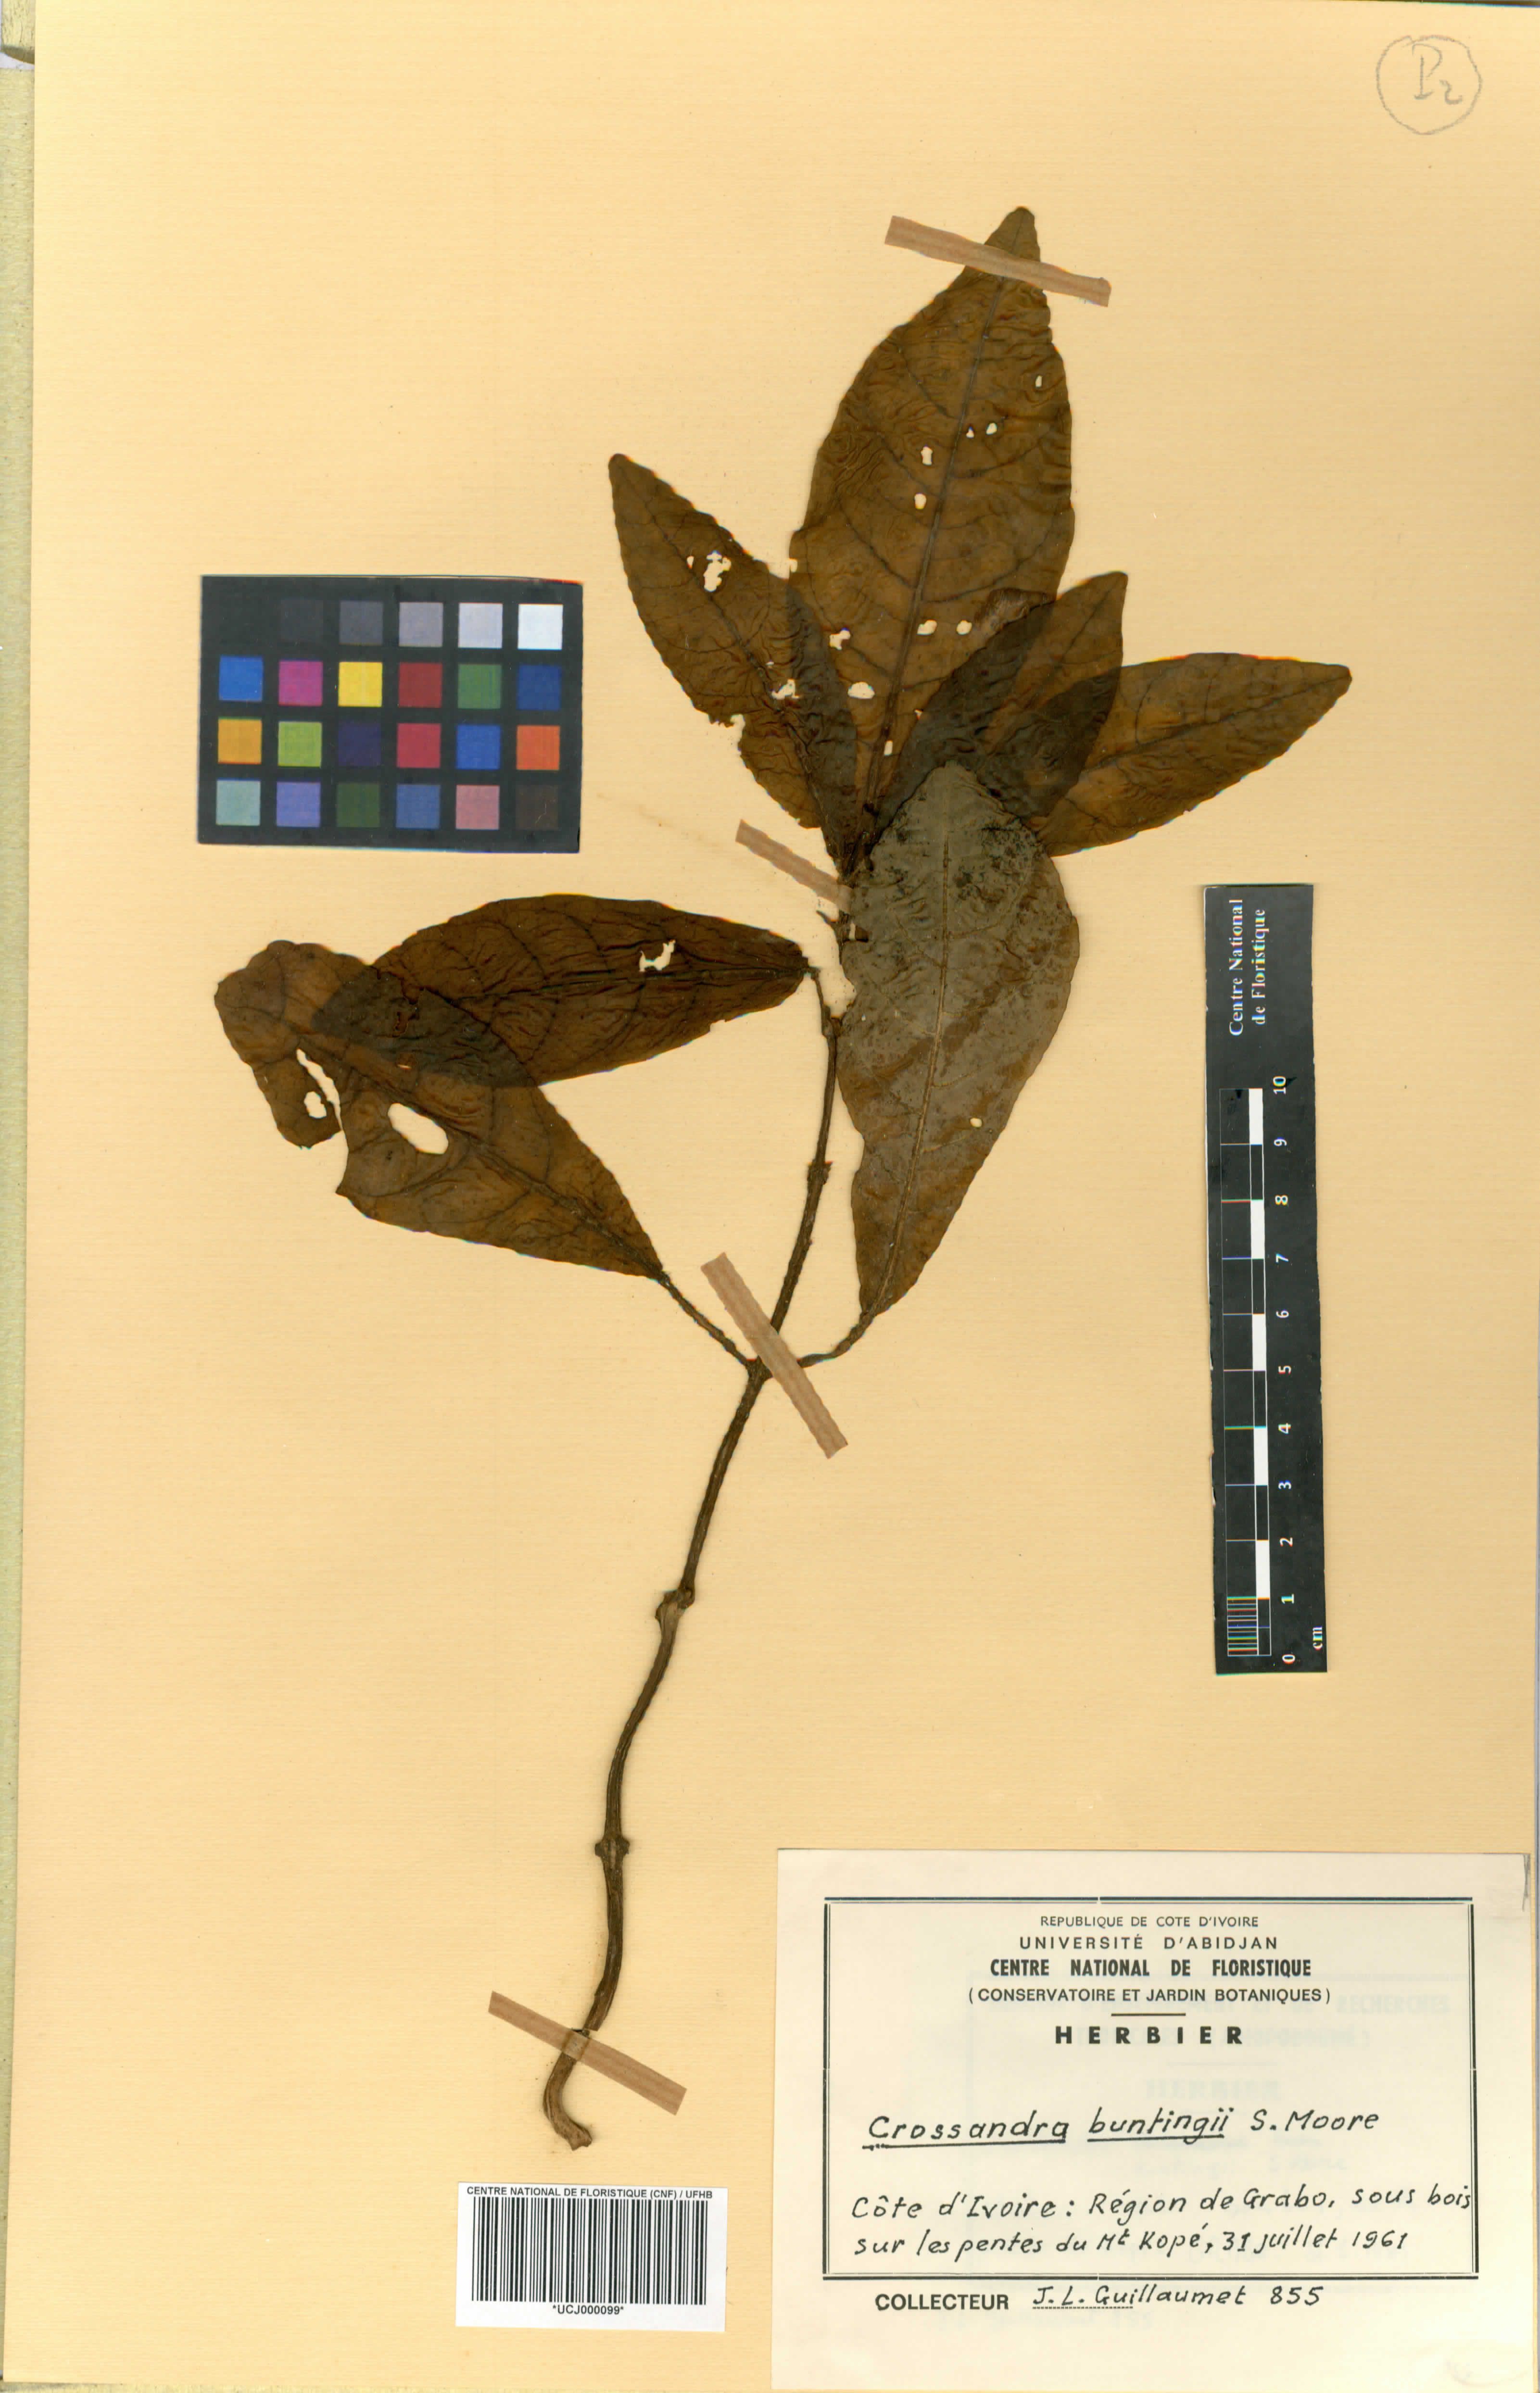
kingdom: Plantae
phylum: Tracheophyta
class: Magnoliopsida
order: Lamiales
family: Acanthaceae
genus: Stenandriopsis
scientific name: Stenandriopsis buntingii
